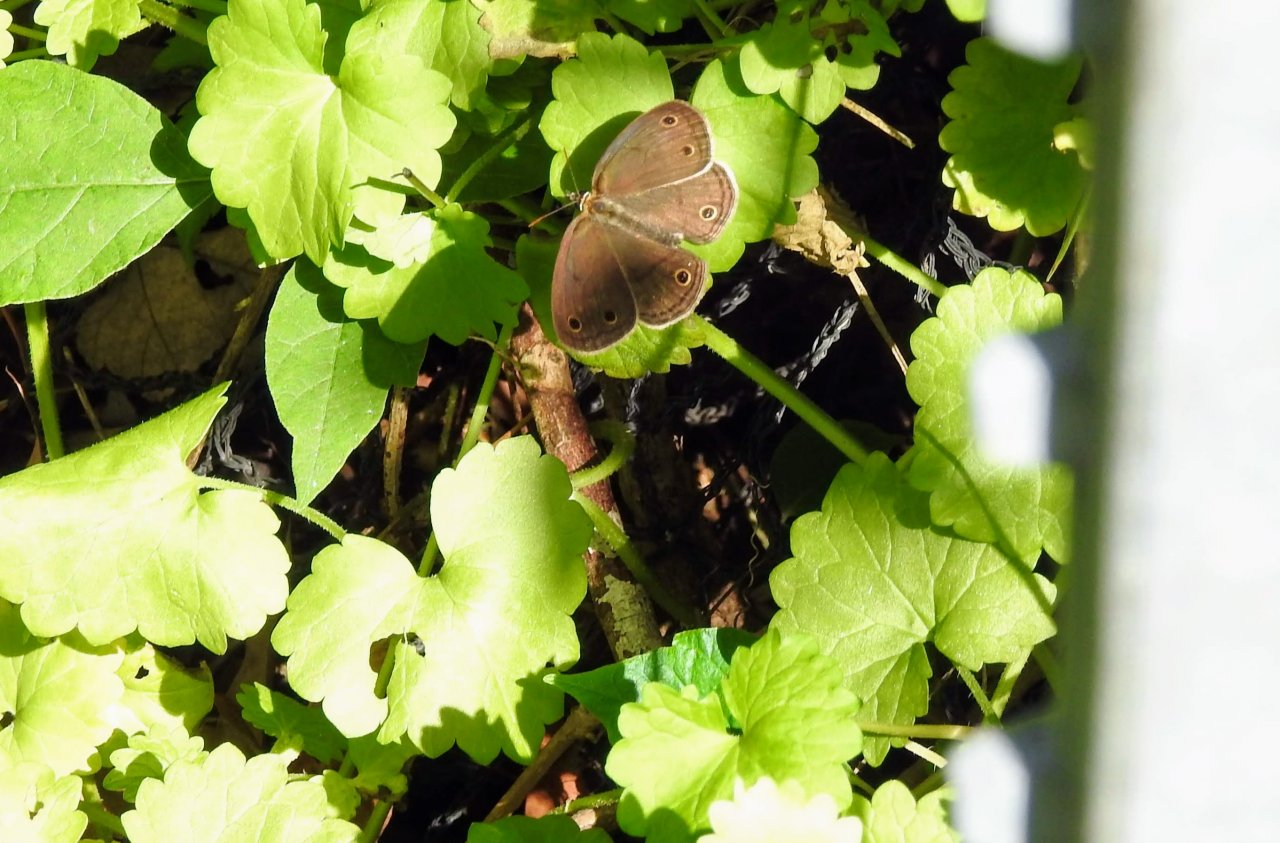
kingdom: Animalia
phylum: Arthropoda
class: Insecta
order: Lepidoptera
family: Nymphalidae
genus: Euptychia
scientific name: Euptychia cymela
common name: Little Wood Satyr
